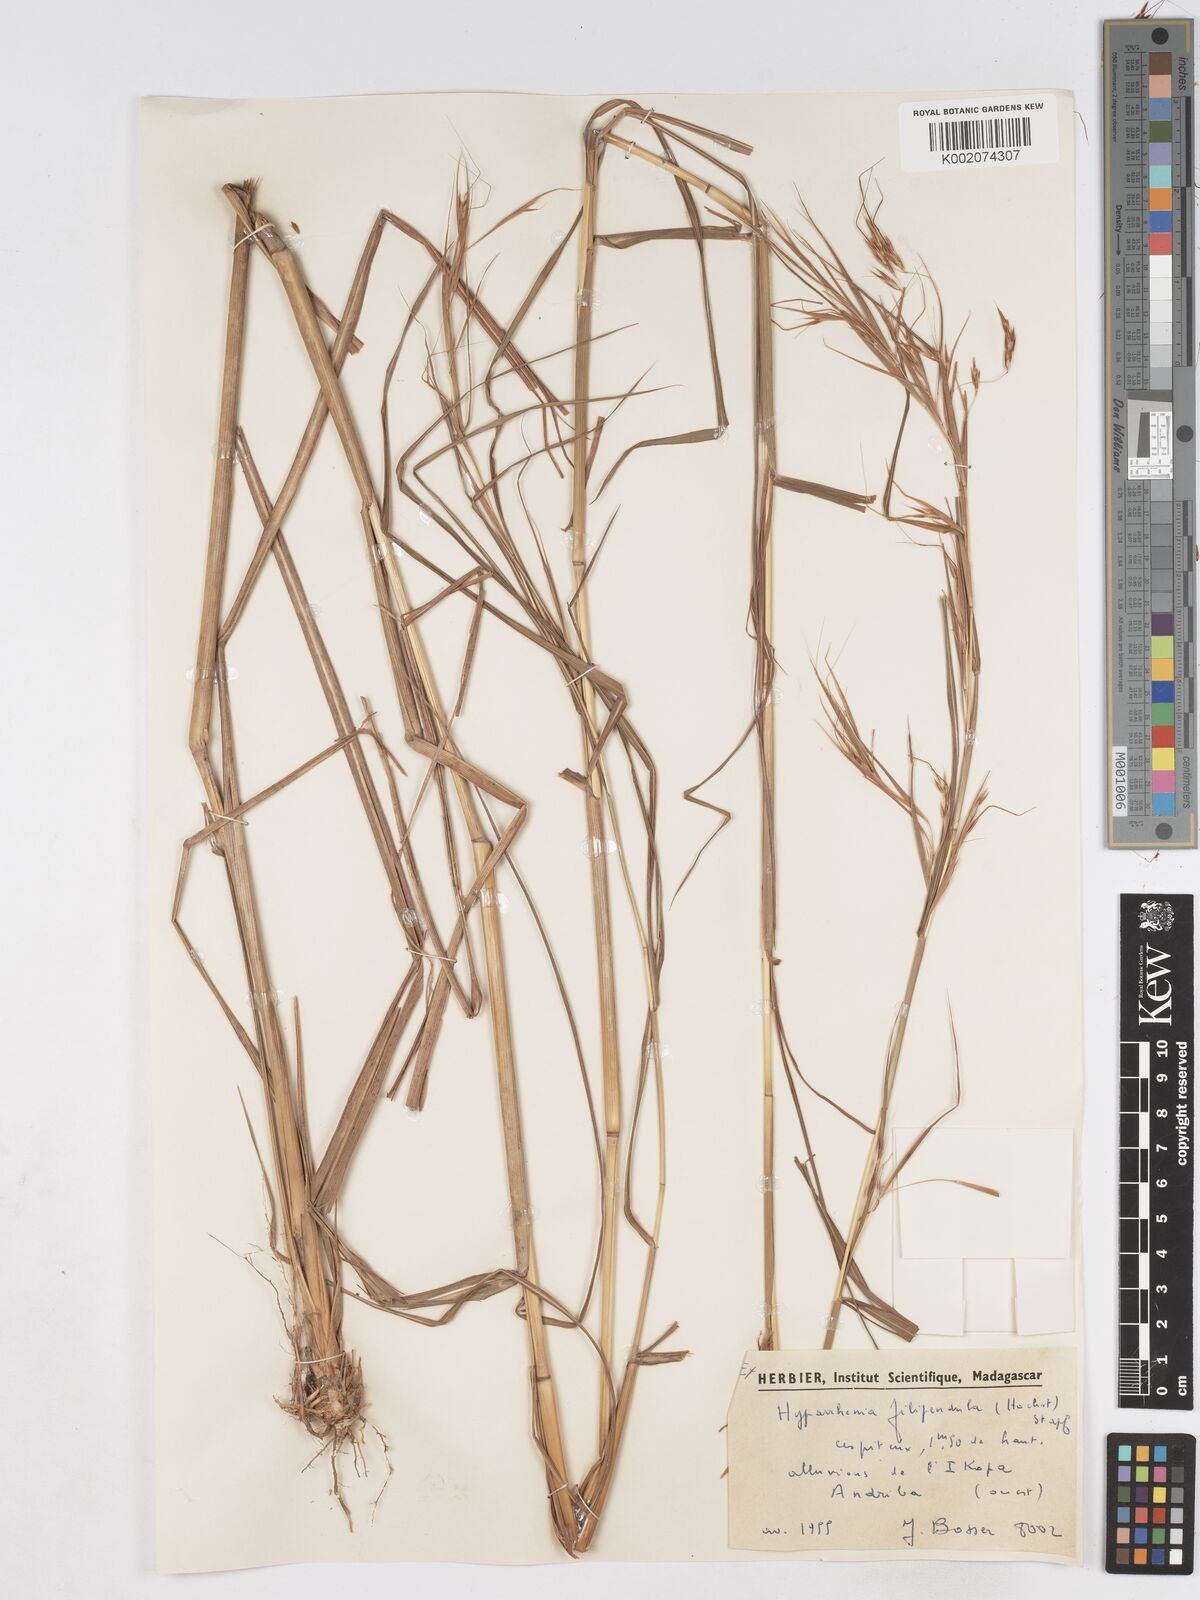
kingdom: Plantae
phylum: Tracheophyta
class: Liliopsida
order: Poales
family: Poaceae
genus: Hyparrhenia
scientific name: Hyparrhenia filipendula
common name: Tambookie grass
